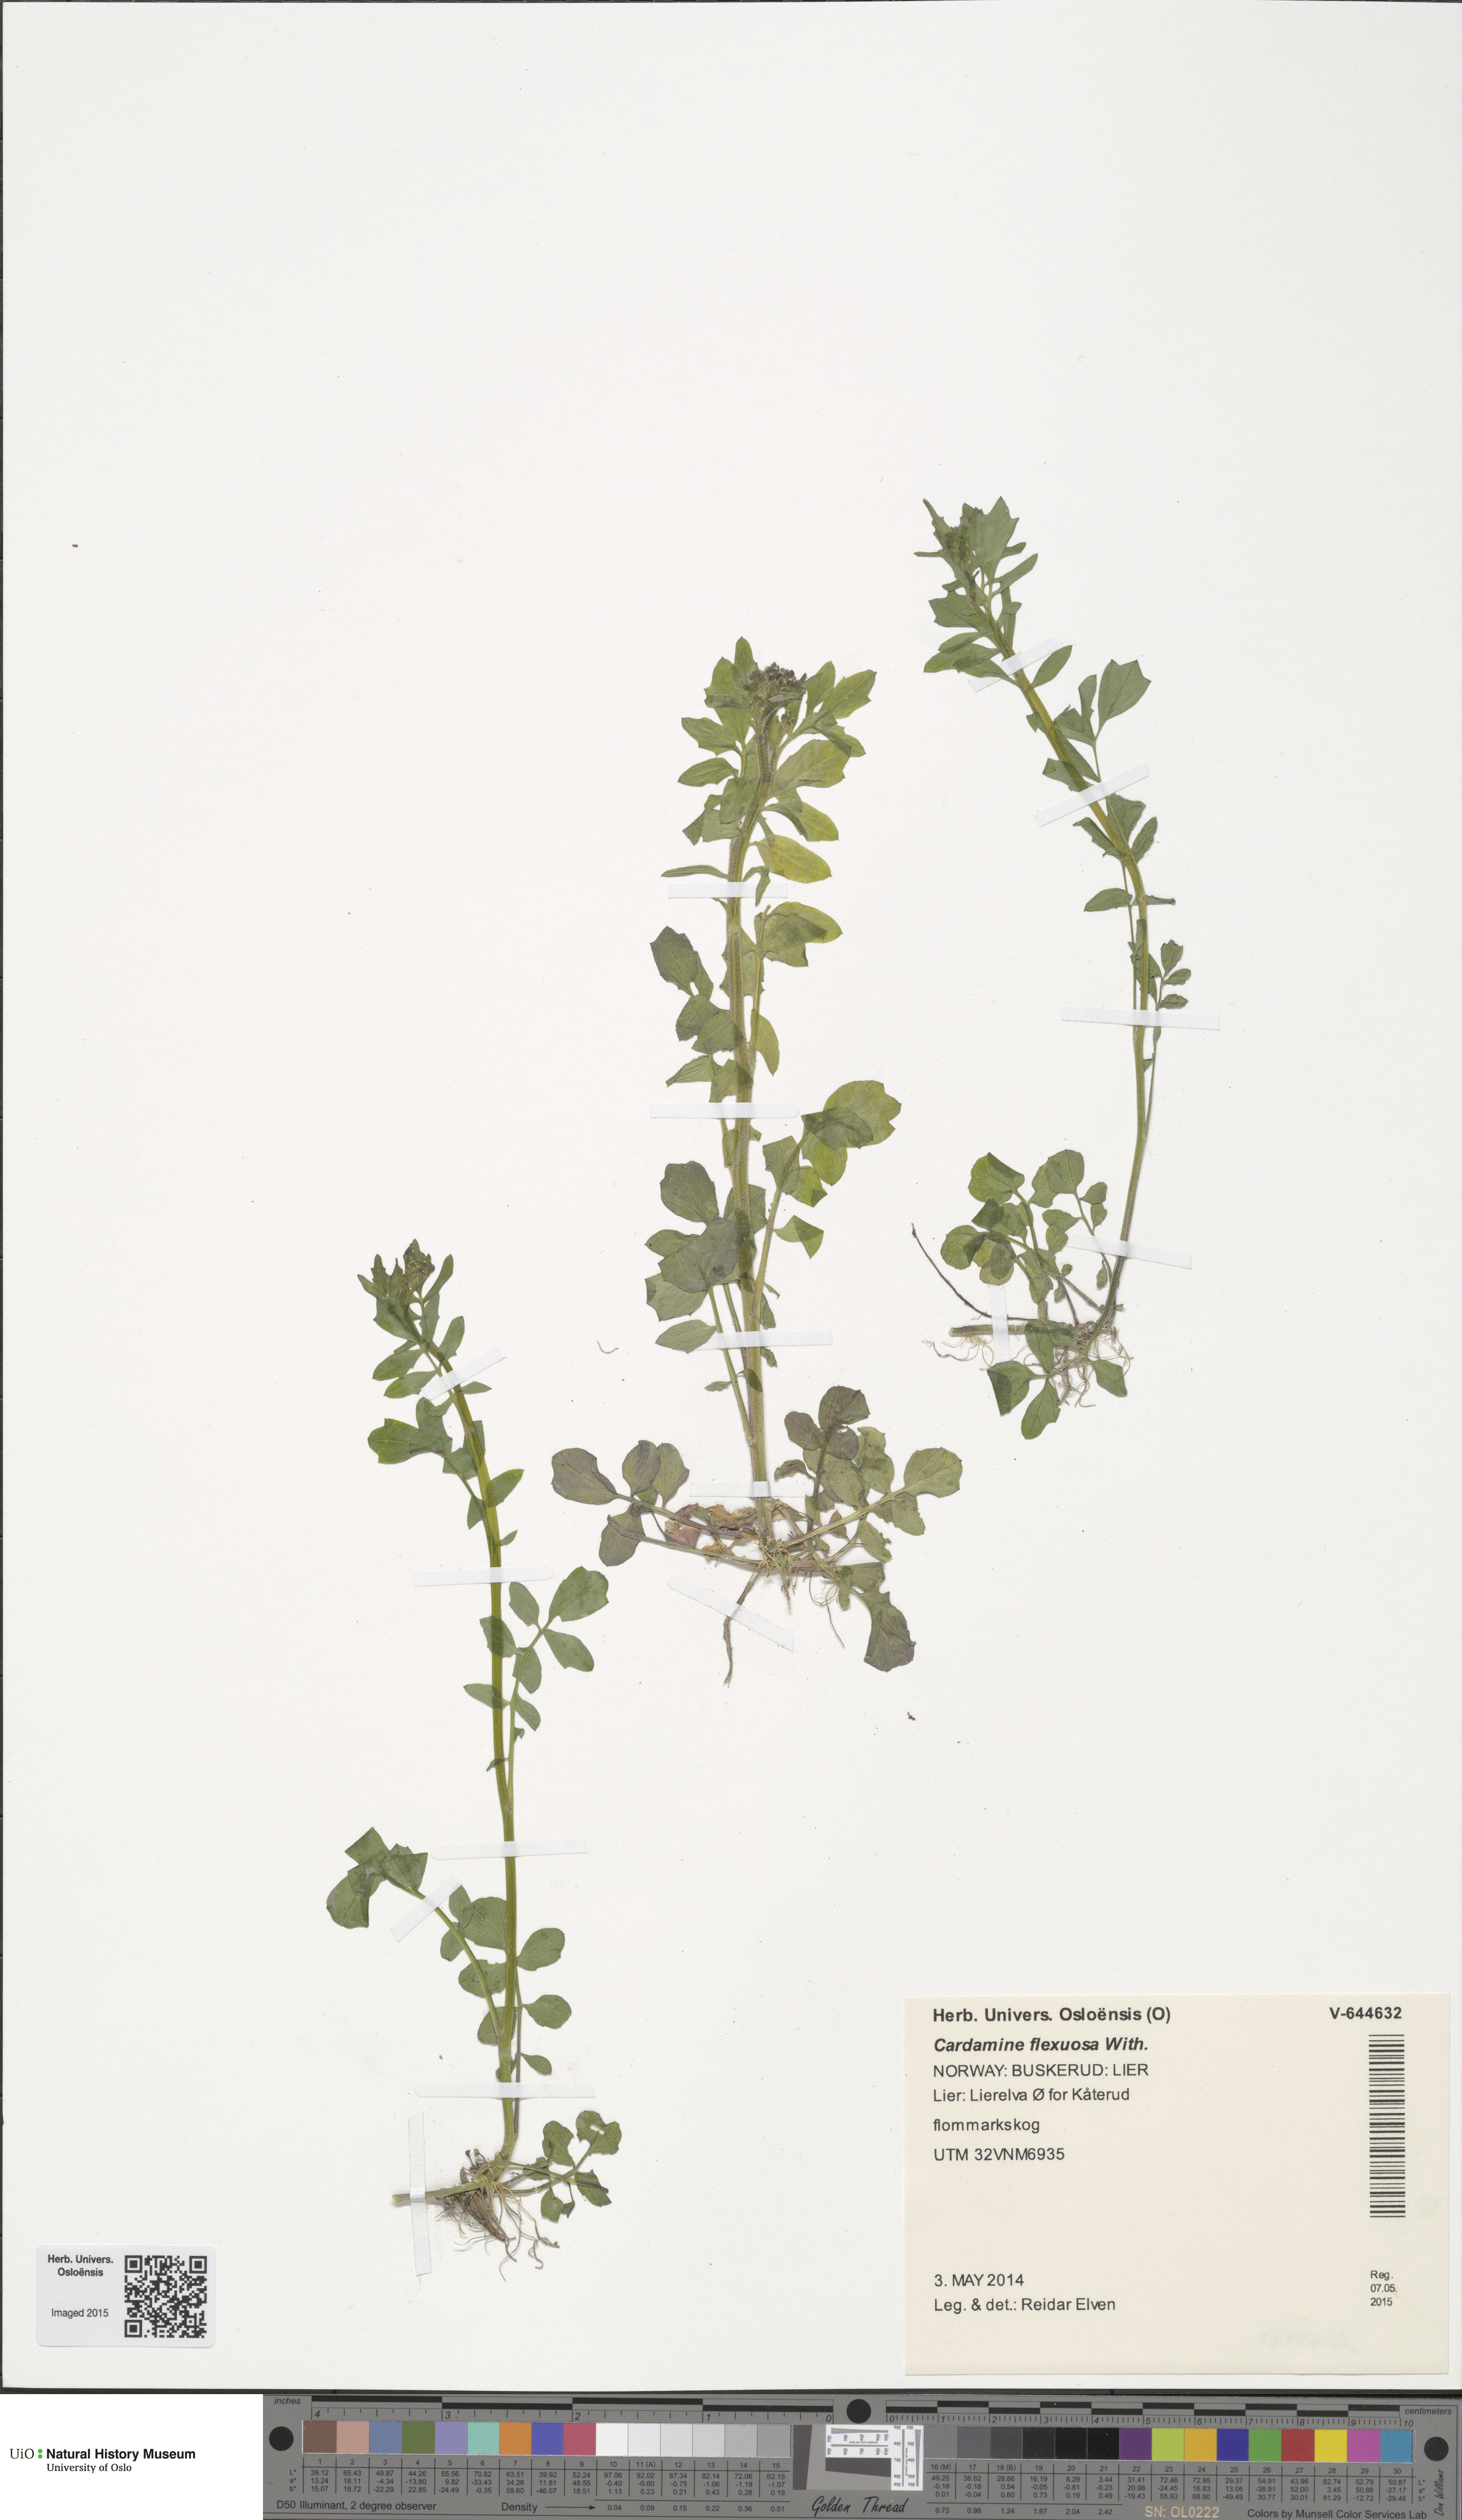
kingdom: Plantae
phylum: Tracheophyta
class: Magnoliopsida
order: Brassicales
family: Brassicaceae
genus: Cardamine
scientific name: Cardamine flexuosa
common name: Woodland bittercress
